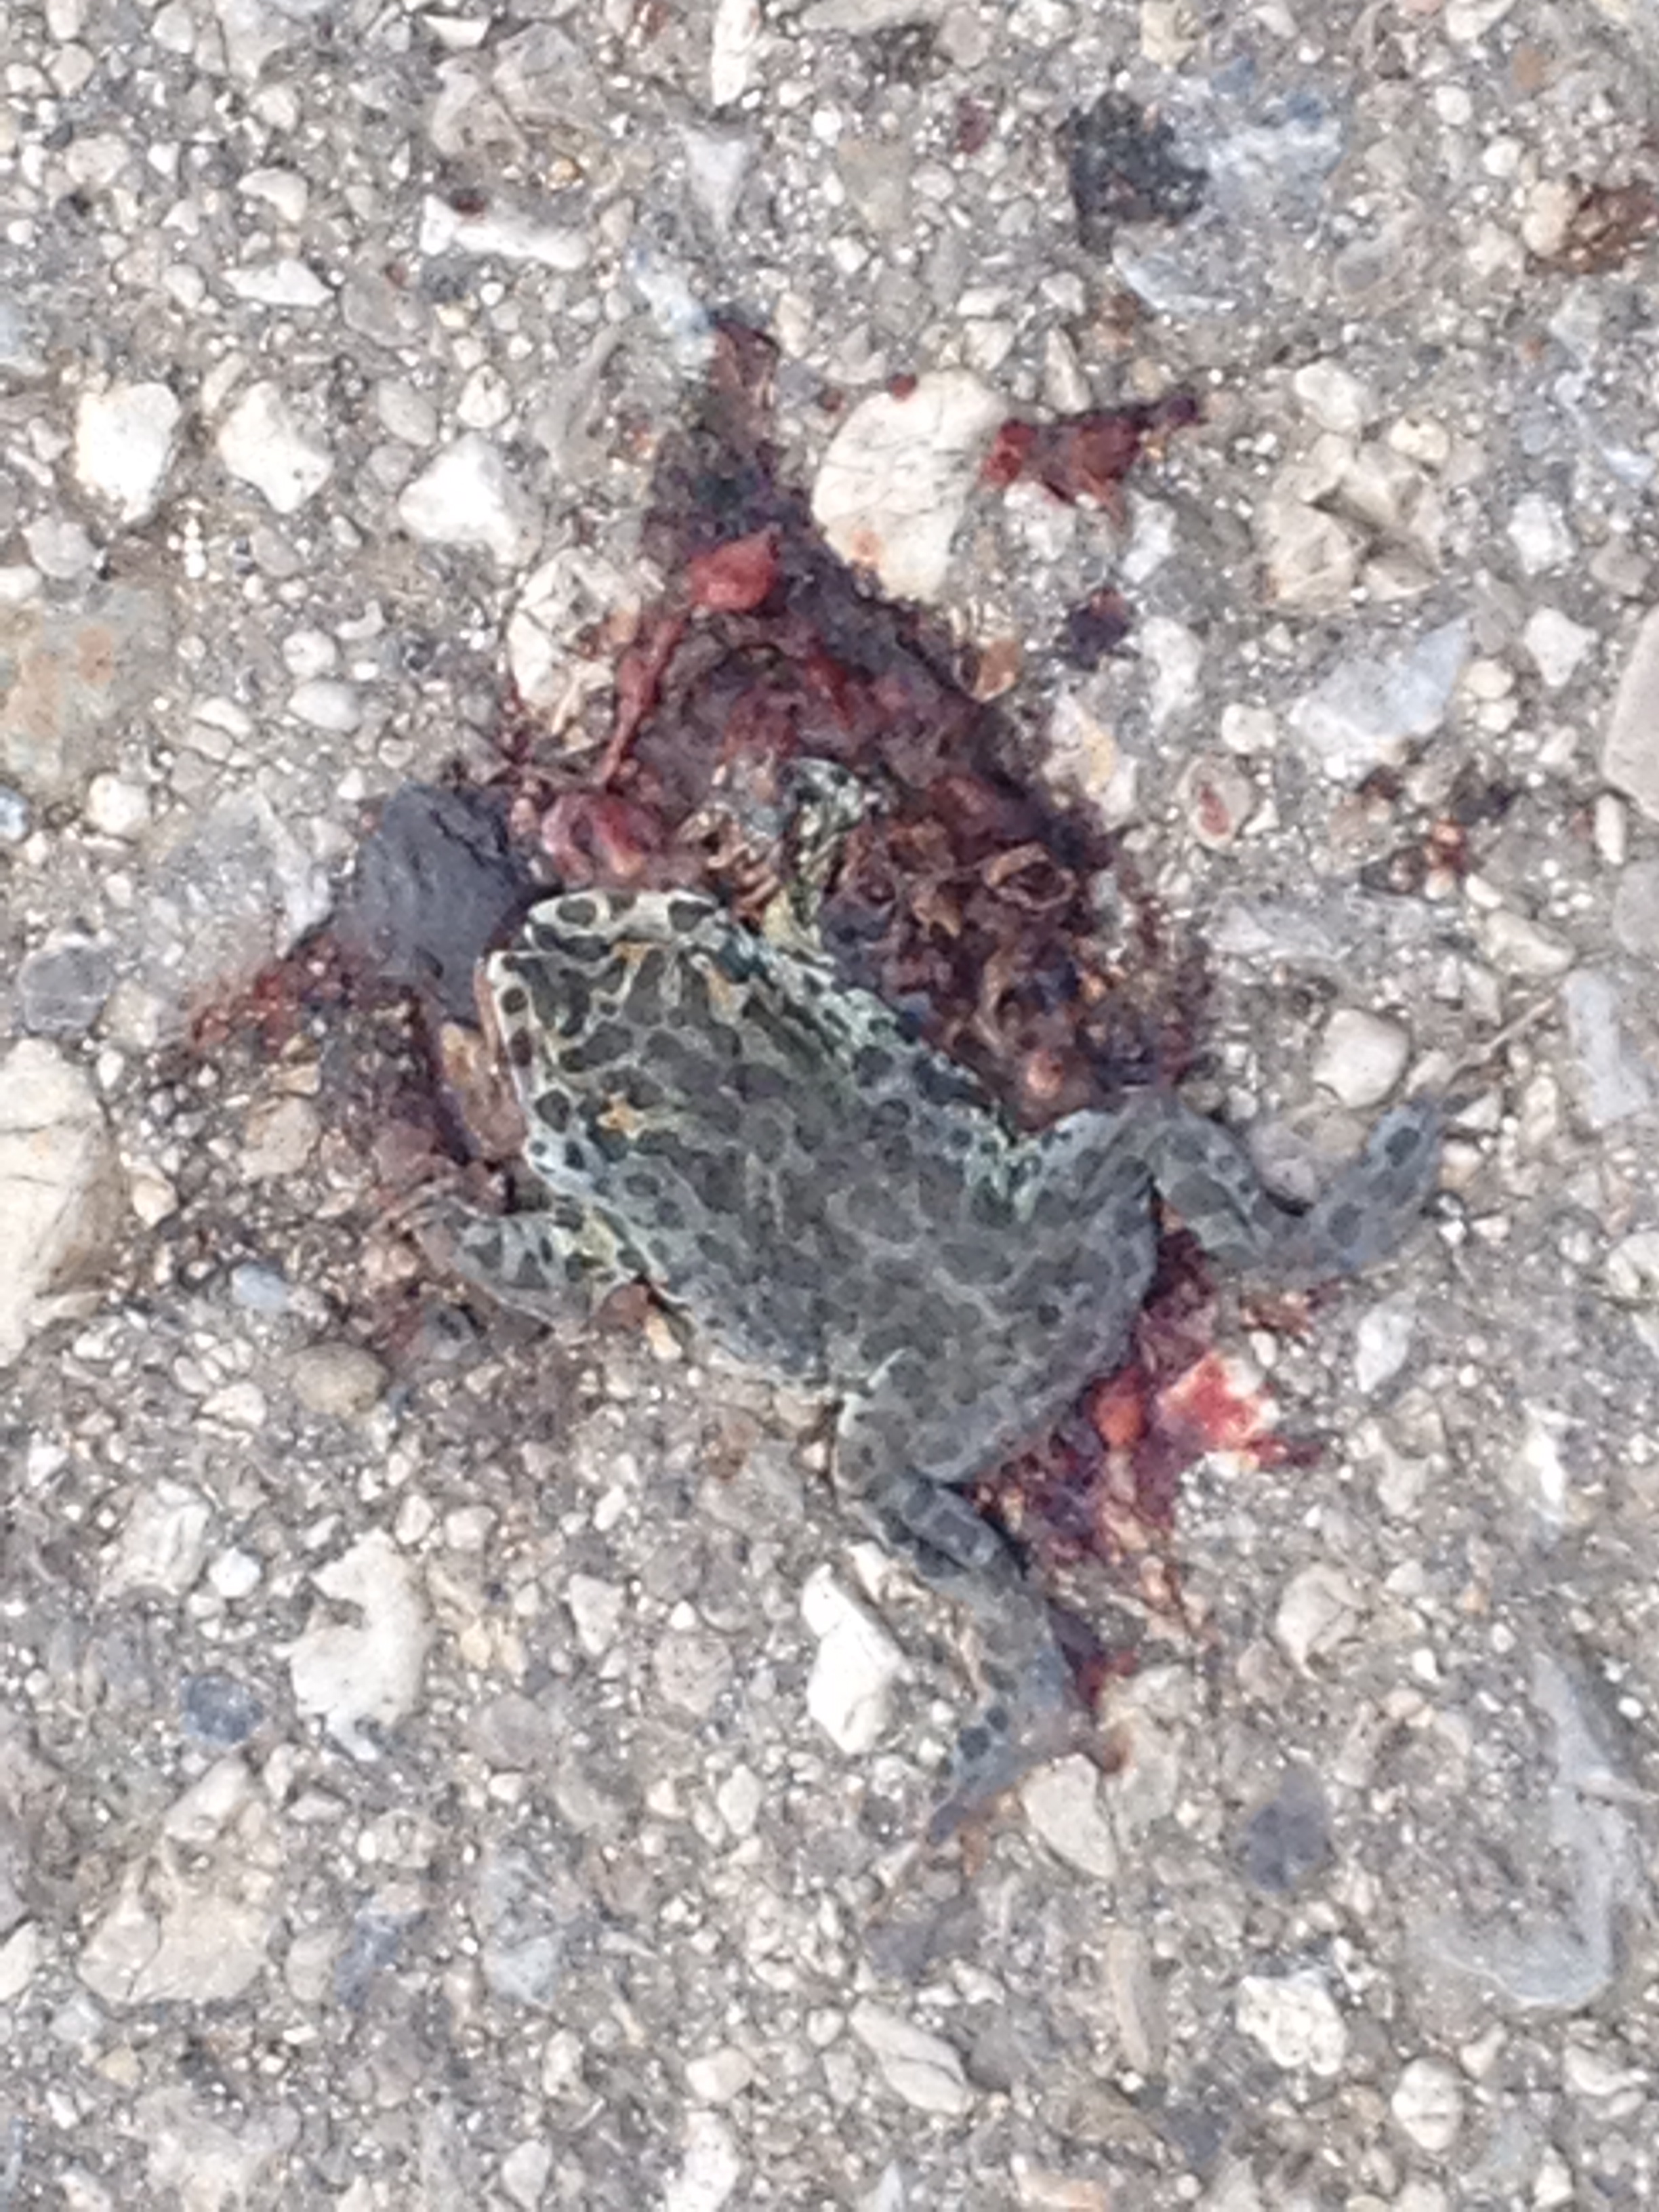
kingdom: Animalia
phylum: Chordata
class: Amphibia
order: Anura
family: Bufonidae
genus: Bufotes
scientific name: Bufotes viridis
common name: European green toad
